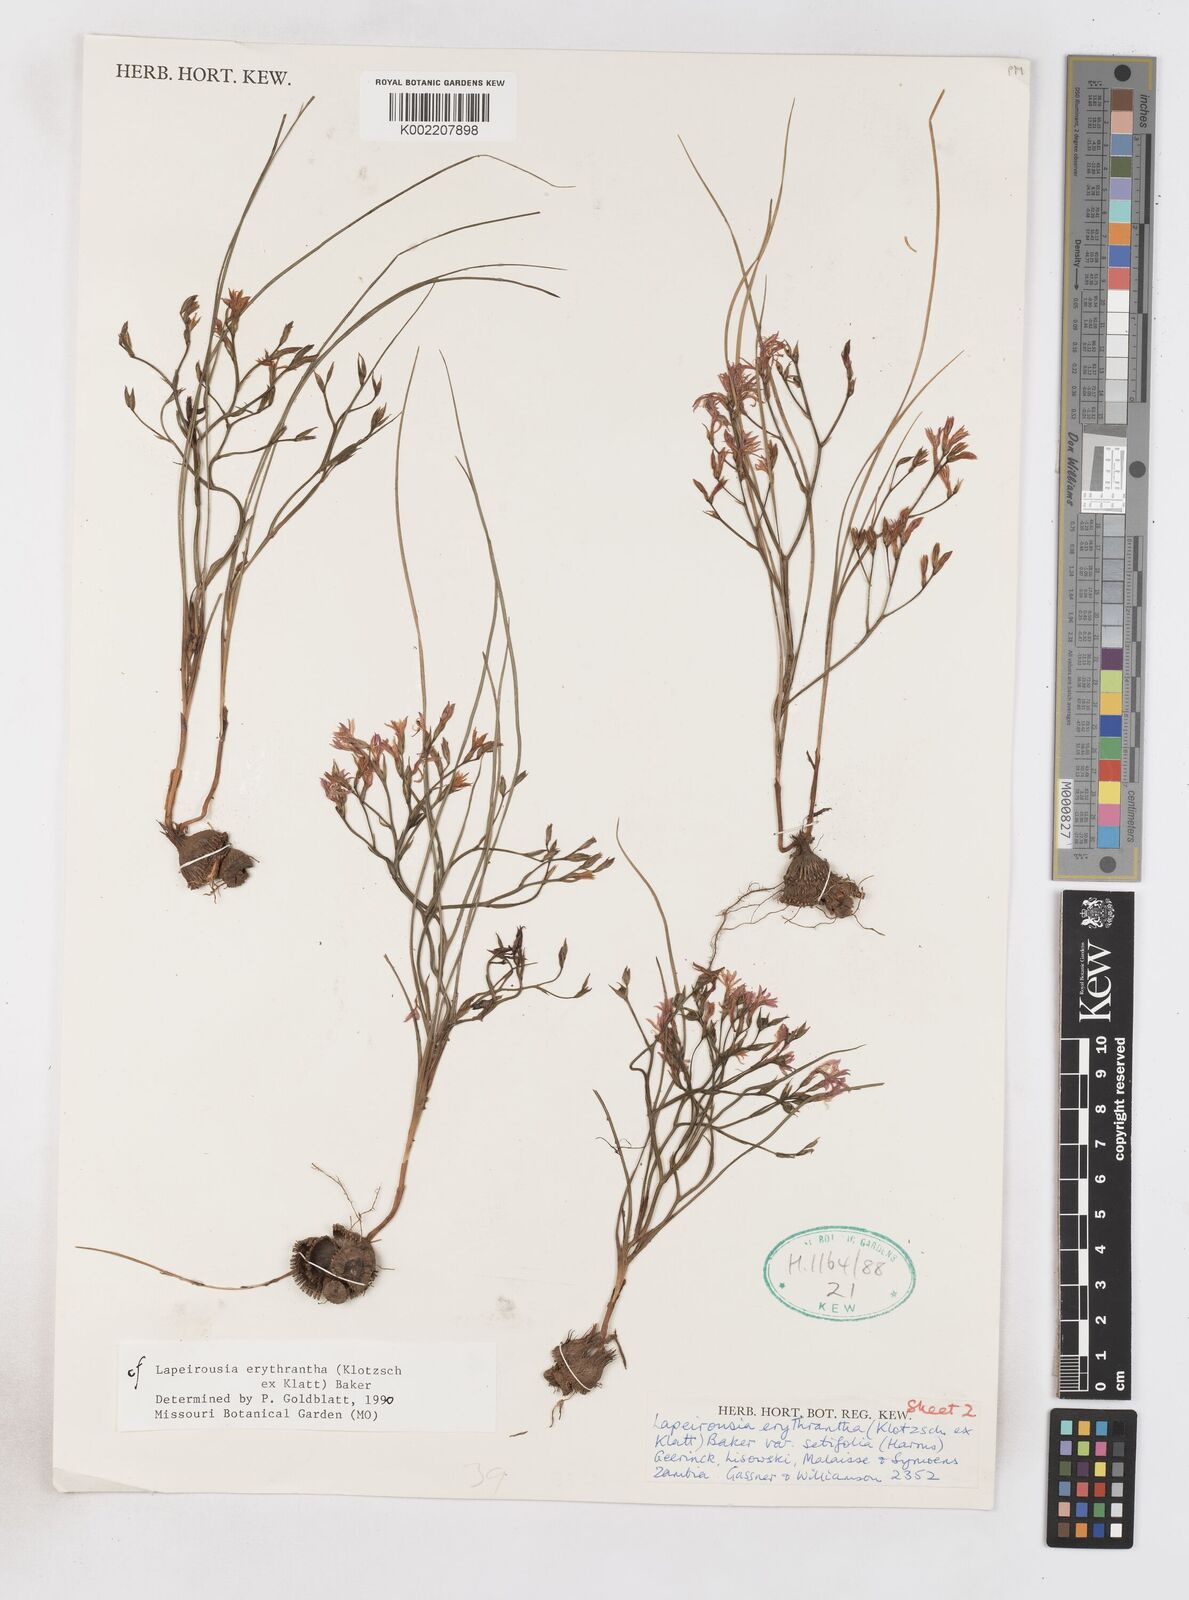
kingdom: Plantae
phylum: Tracheophyta
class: Liliopsida
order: Asparagales
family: Iridaceae
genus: Afrosolen
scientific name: Afrosolen erythranthus
